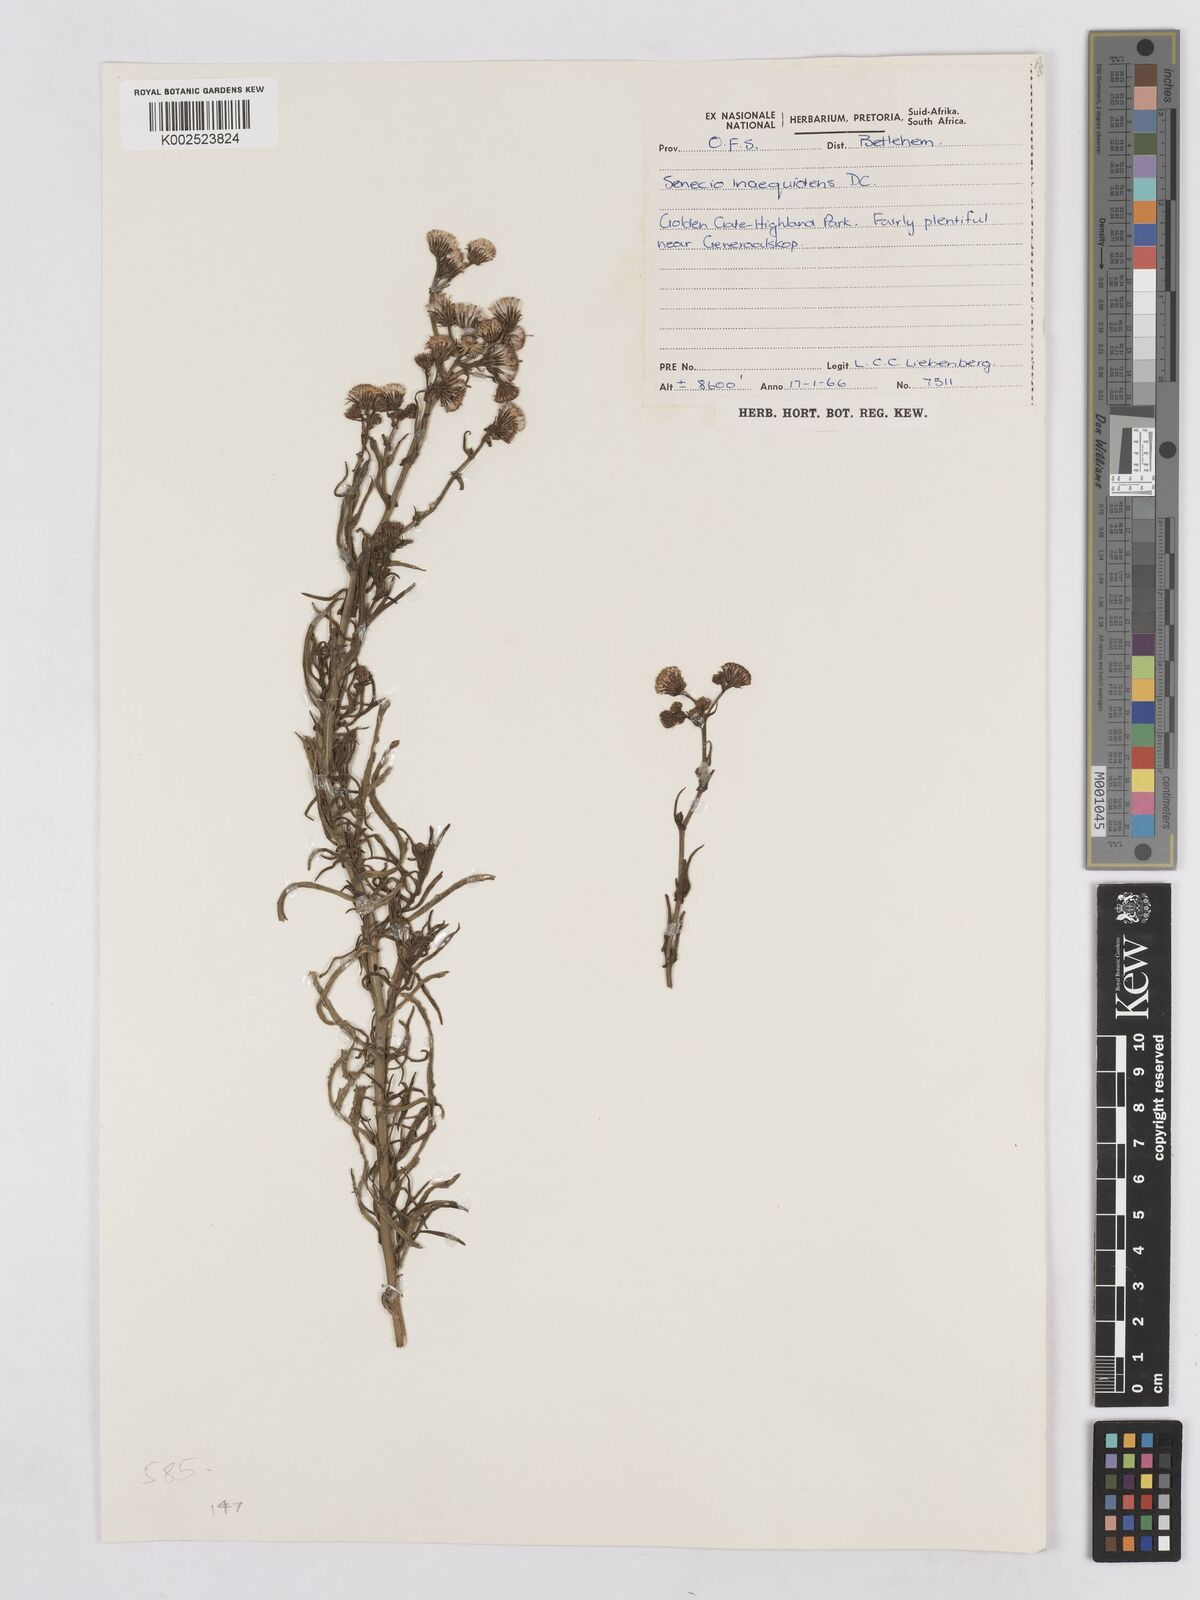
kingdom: Plantae
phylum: Tracheophyta
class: Magnoliopsida
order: Asterales
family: Asteraceae
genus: Senecio
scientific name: Senecio harveyanus
